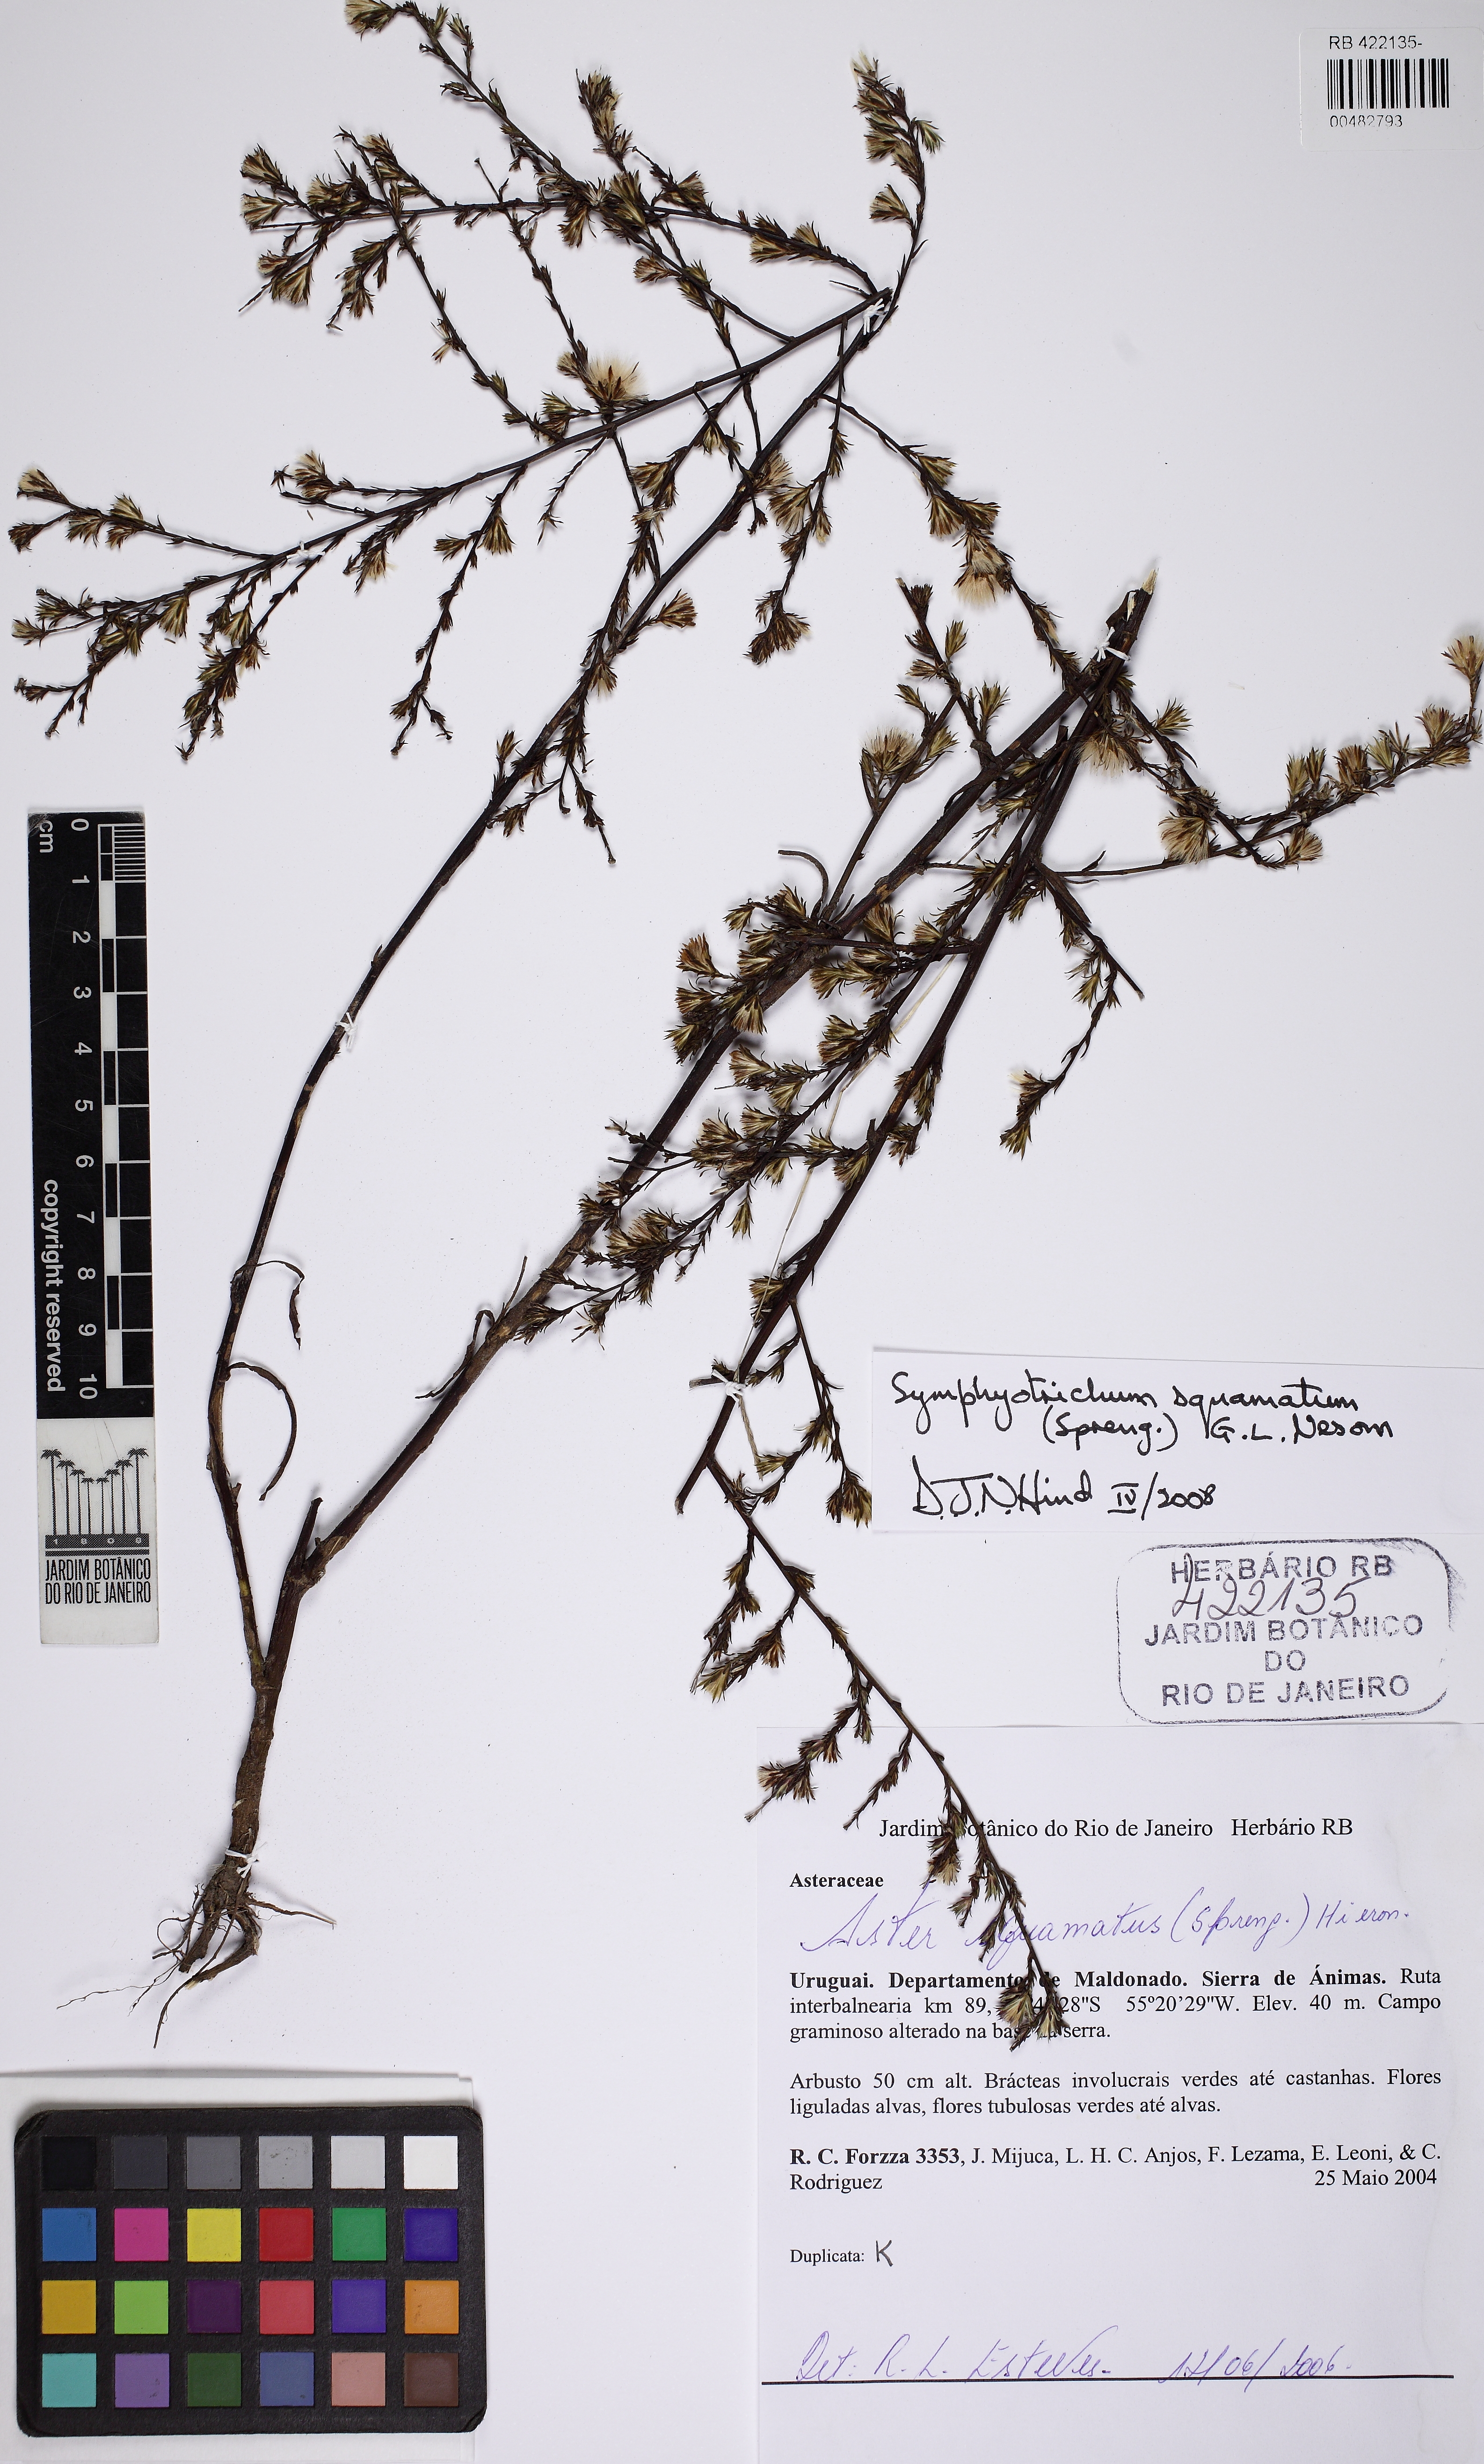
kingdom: Plantae
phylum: Tracheophyta
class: Magnoliopsida
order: Asterales
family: Asteraceae
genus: Symphyotrichum
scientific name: Symphyotrichum squamatum
